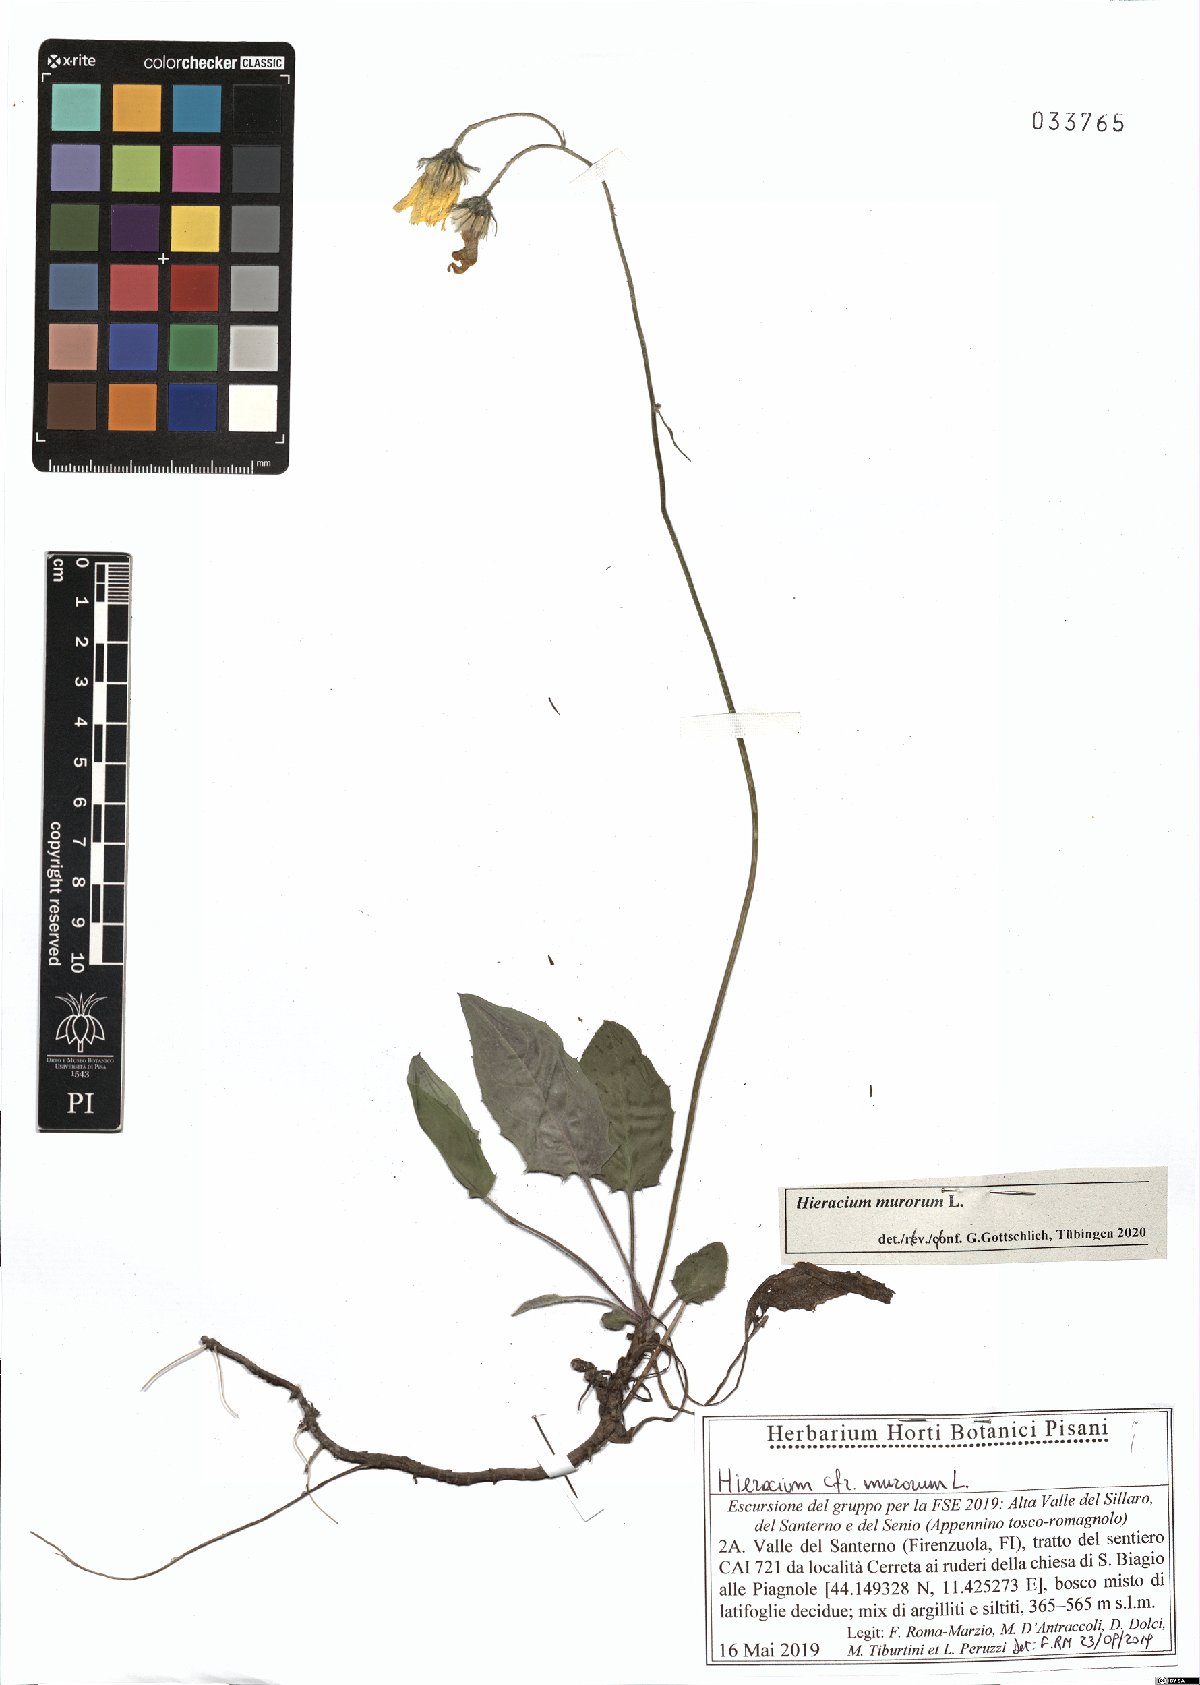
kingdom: Plantae
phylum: Tracheophyta
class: Magnoliopsida
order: Asterales
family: Asteraceae
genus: Hieracium
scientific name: Hieracium murorum
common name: Wall hawkweed
